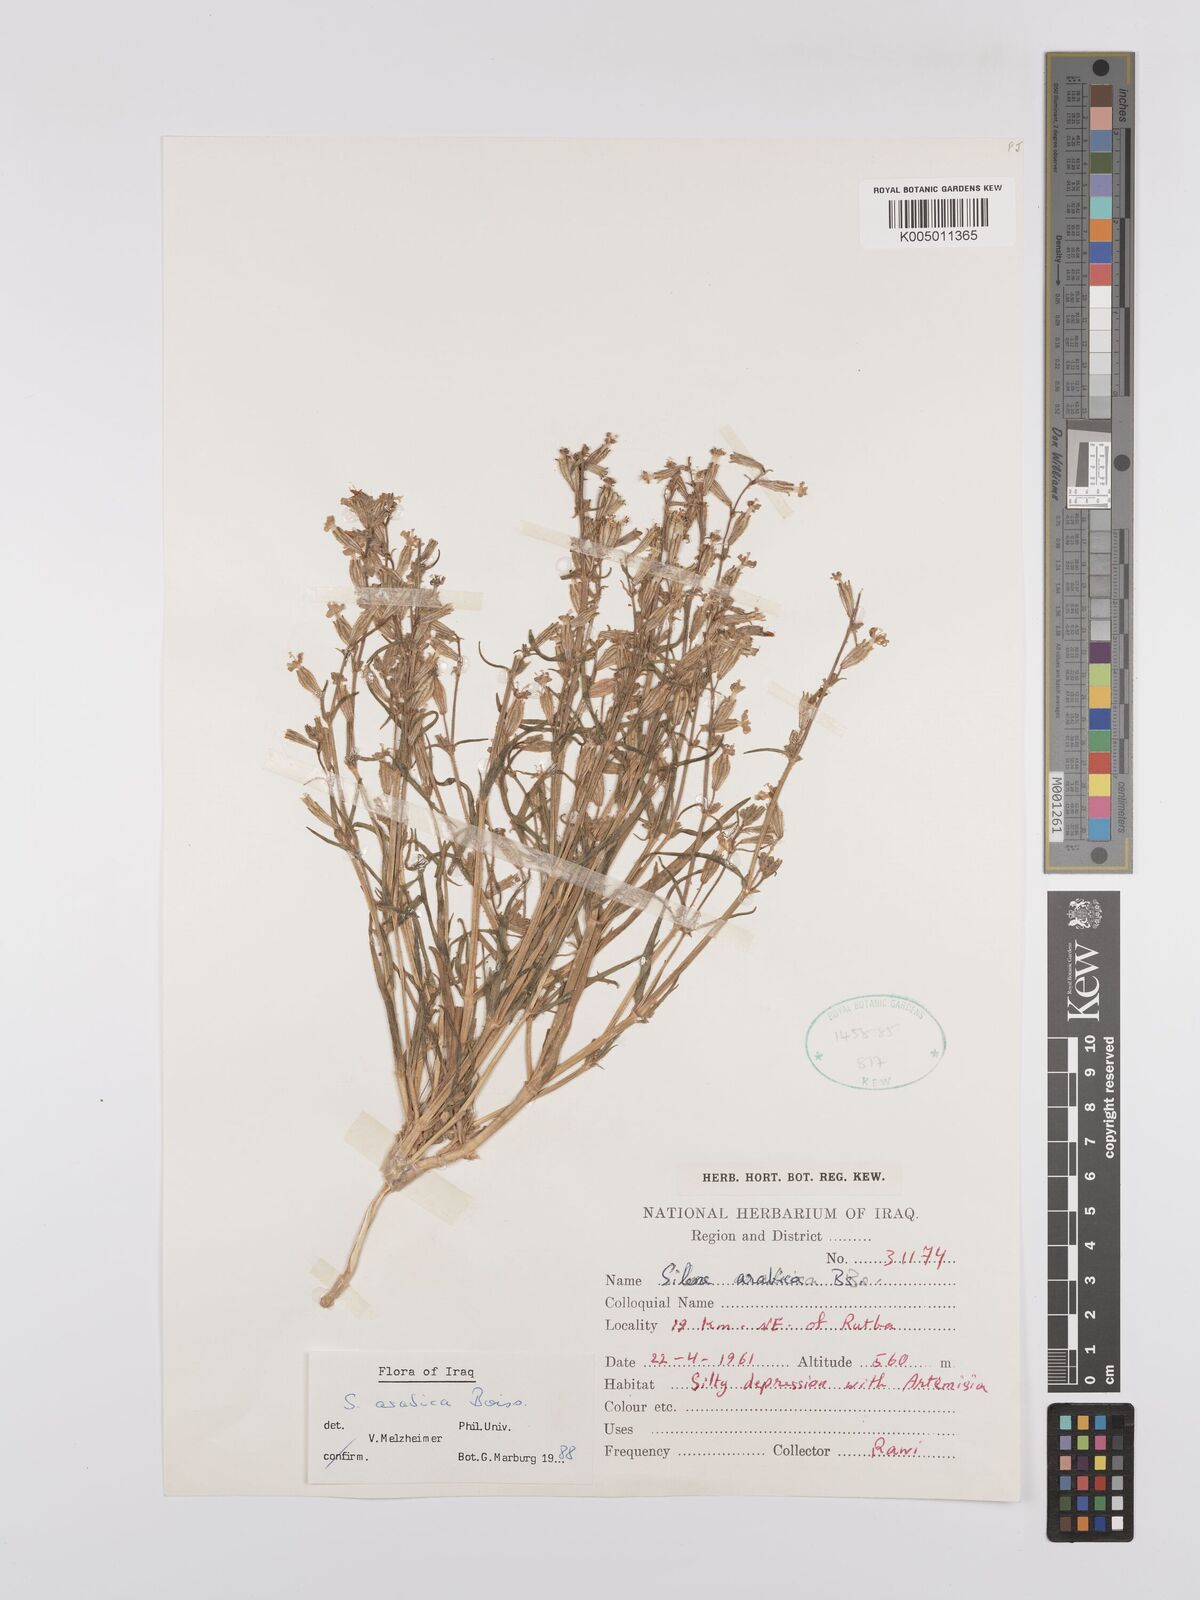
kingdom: Plantae
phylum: Tracheophyta
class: Magnoliopsida
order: Caryophyllales
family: Caryophyllaceae
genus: Silene
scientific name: Silene arabica
